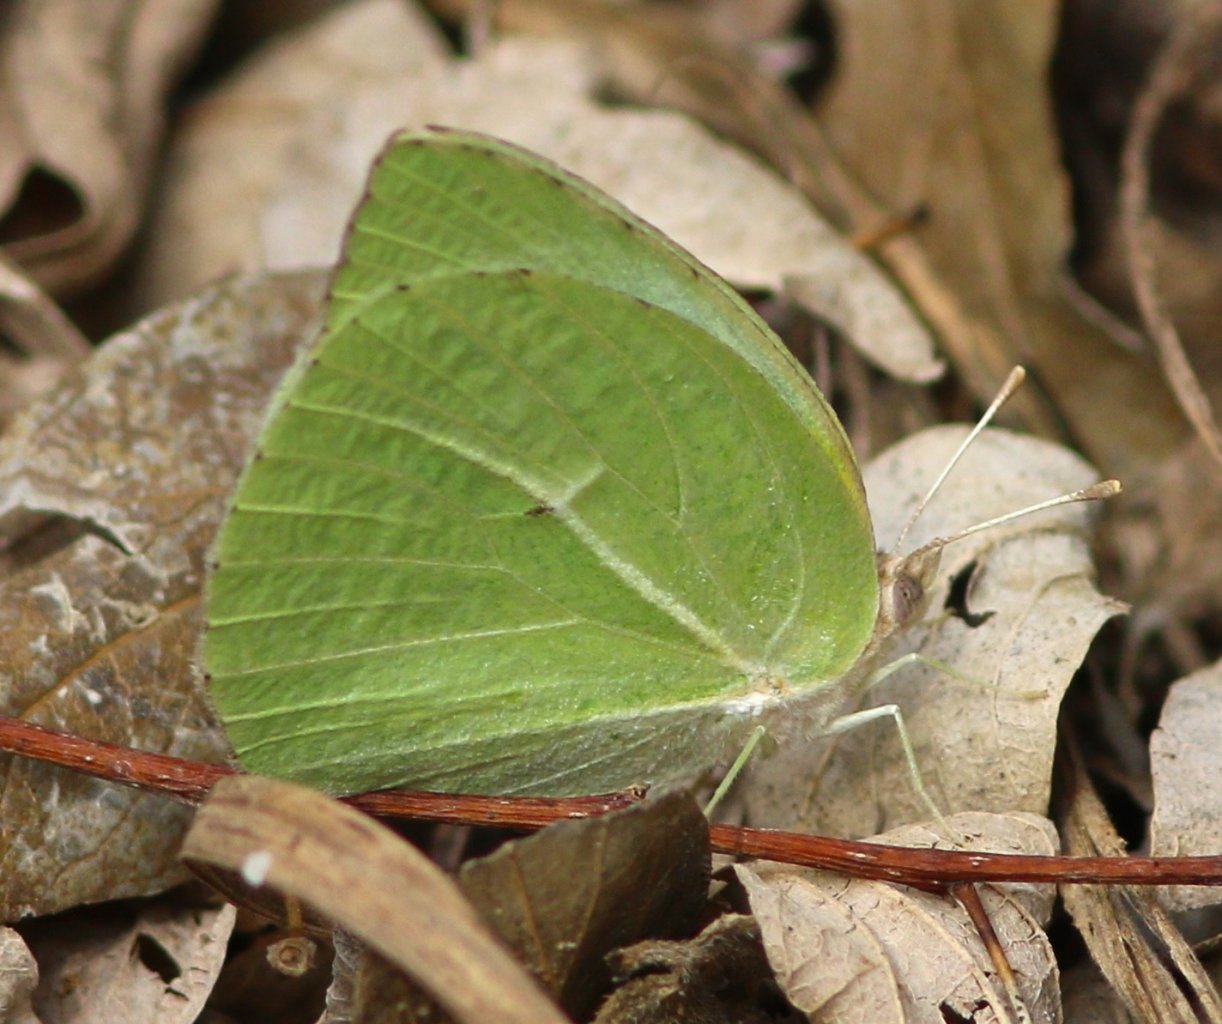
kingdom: Animalia
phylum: Arthropoda
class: Insecta
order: Lepidoptera
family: Pieridae
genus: Kricogonia
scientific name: Kricogonia lyside
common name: Lyside Sulphur
